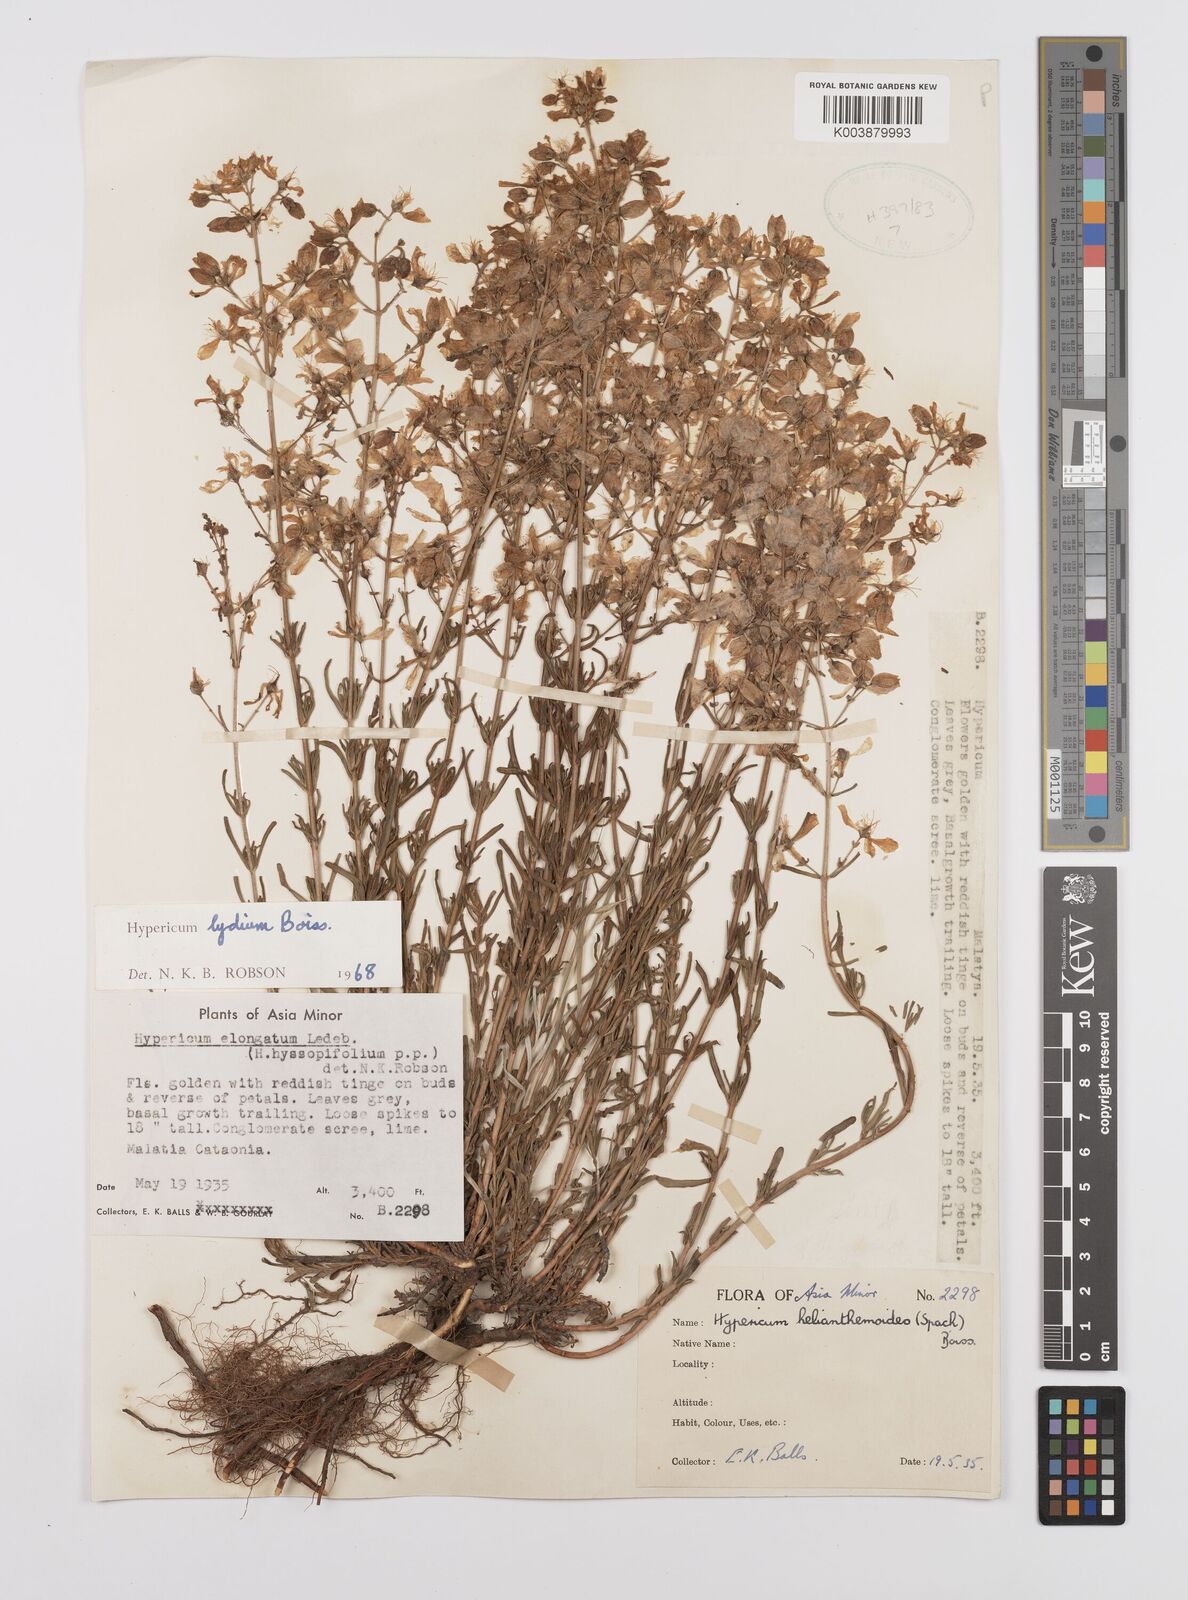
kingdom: Plantae
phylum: Tracheophyta
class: Magnoliopsida
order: Malpighiales
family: Hypericaceae
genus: Hypericum
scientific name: Hypericum lydium
